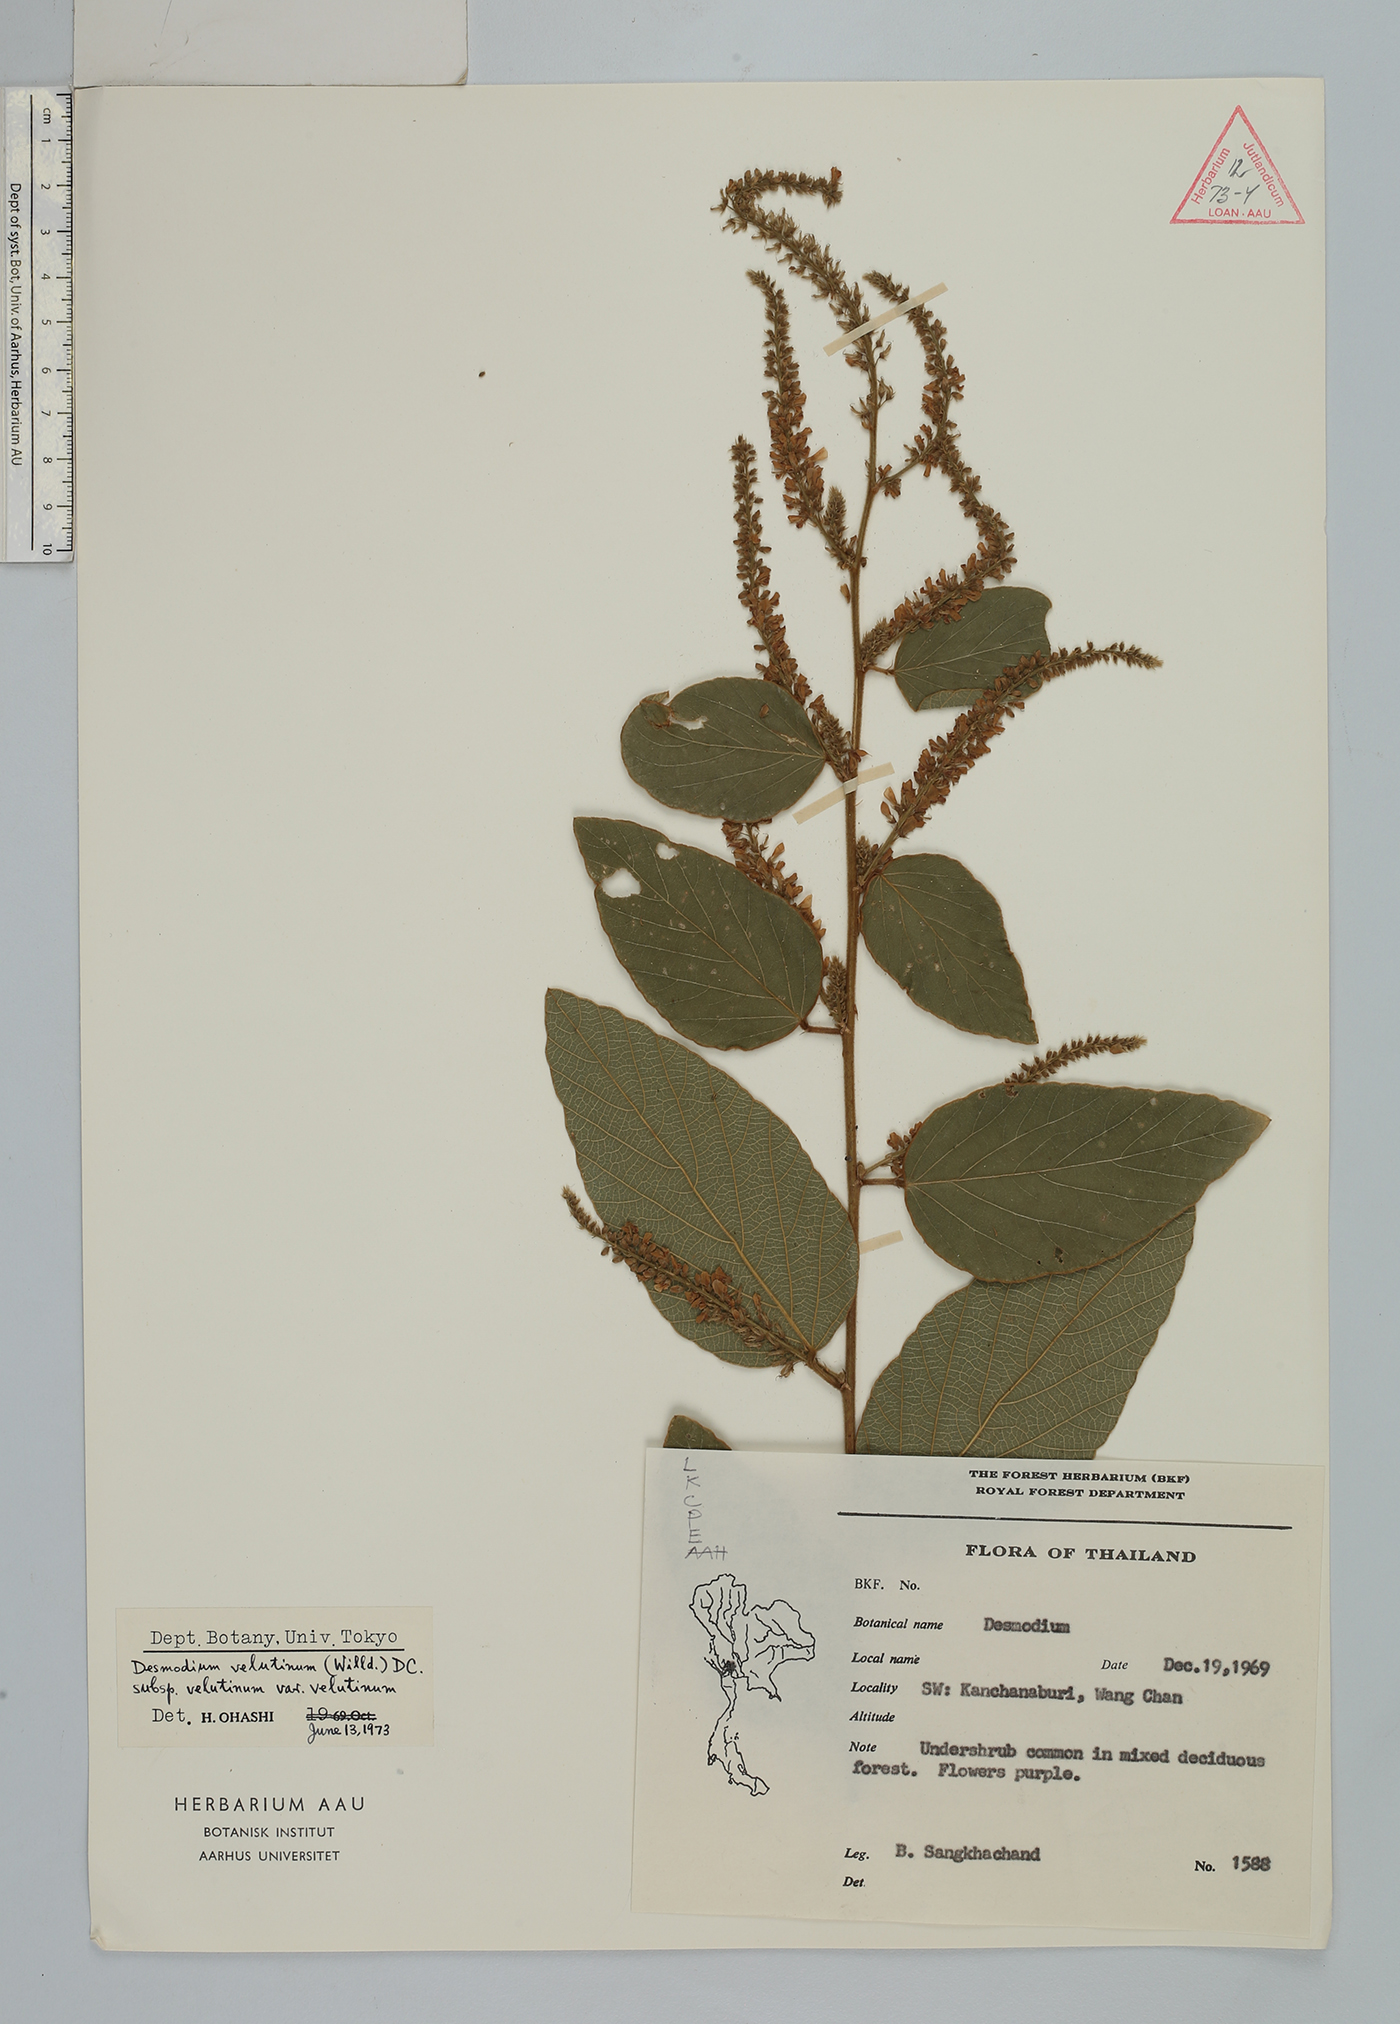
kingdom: Plantae
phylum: Tracheophyta
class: Magnoliopsida
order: Fabales
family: Fabaceae
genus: Polhillides
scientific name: Polhillides velutina
